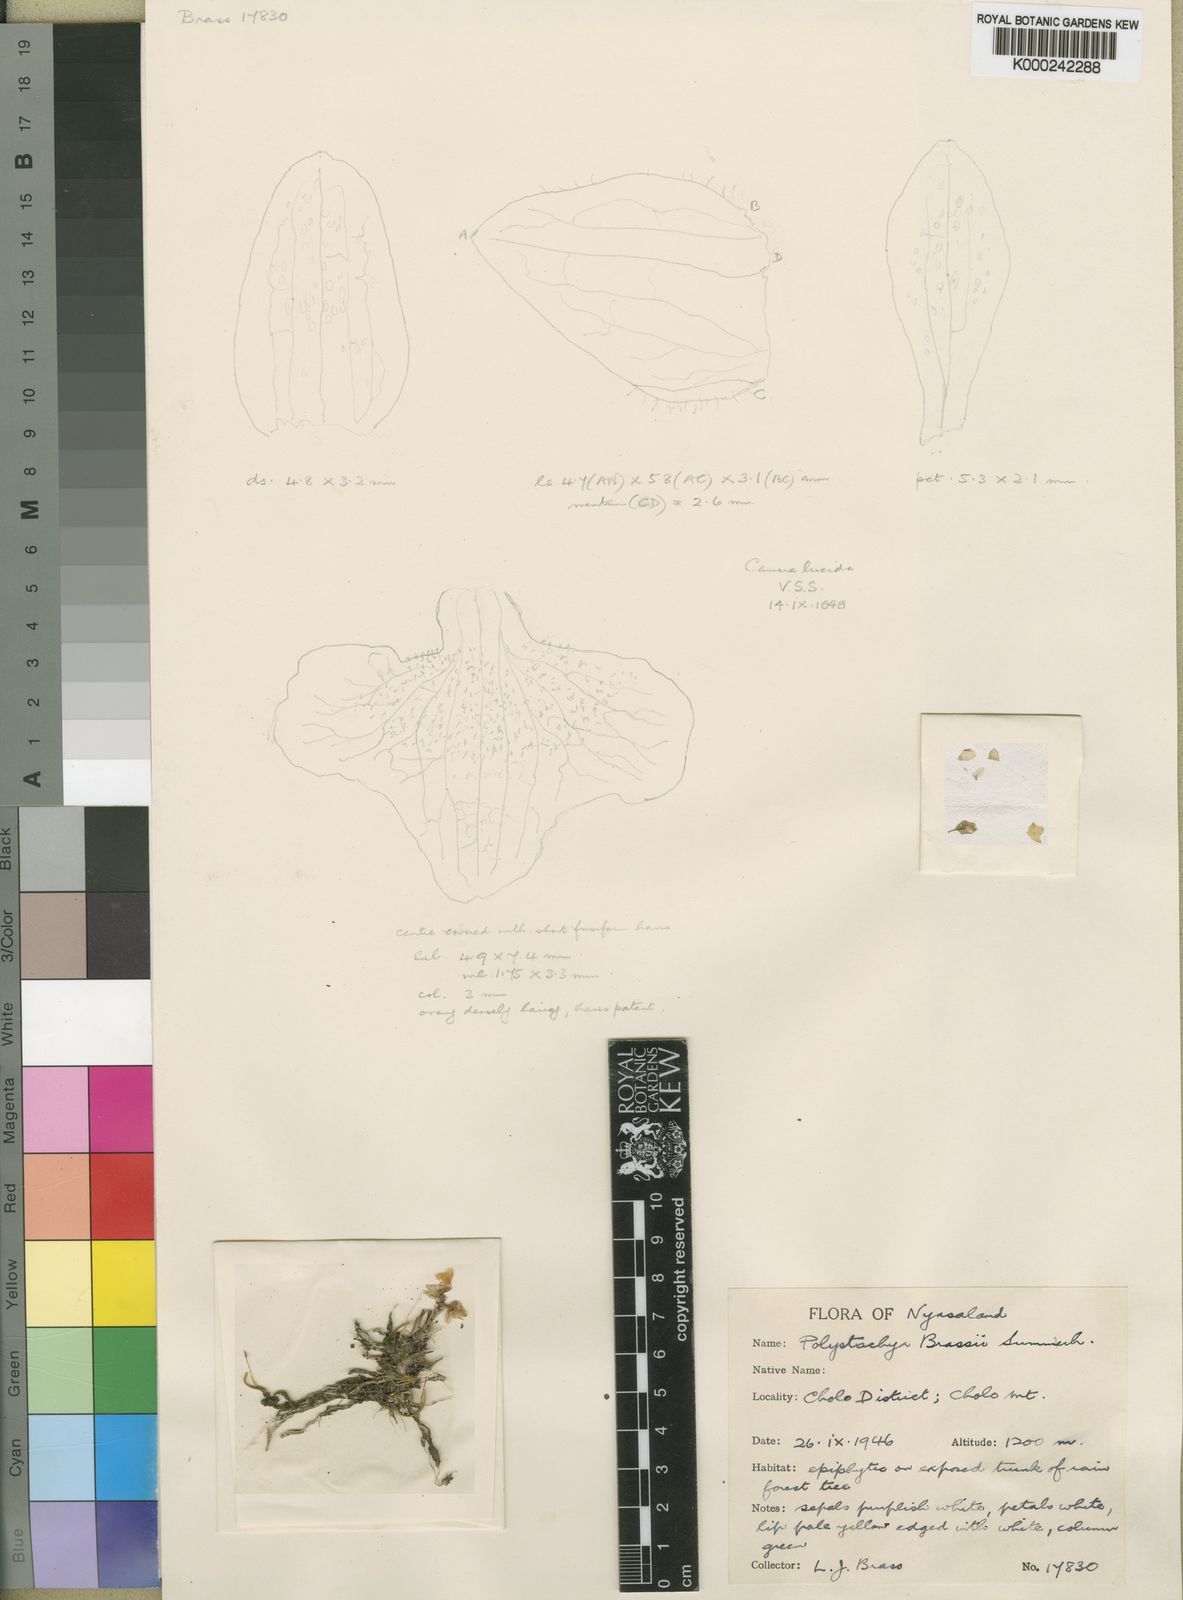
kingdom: Plantae
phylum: Tracheophyta
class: Liliopsida
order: Asparagales
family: Orchidaceae
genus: Polystachya
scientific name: Polystachya brassii
